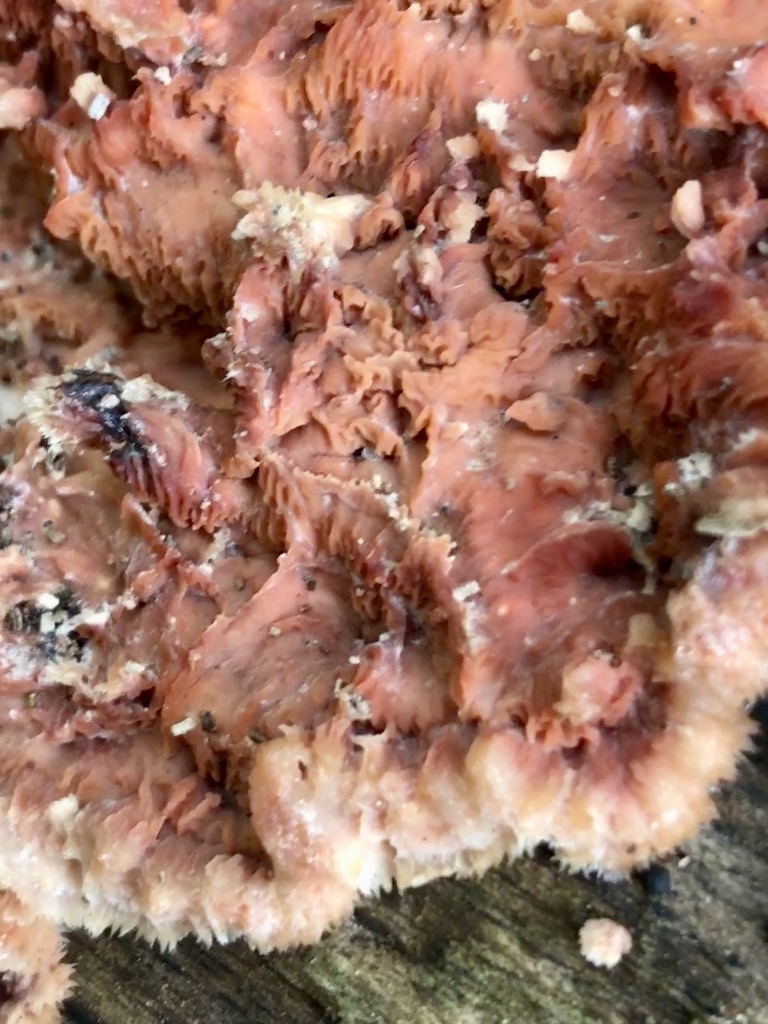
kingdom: Fungi
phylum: Basidiomycota
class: Agaricomycetes
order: Polyporales
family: Meruliaceae
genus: Phlebia
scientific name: Phlebia tremellosa
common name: bævrende åresvamp
